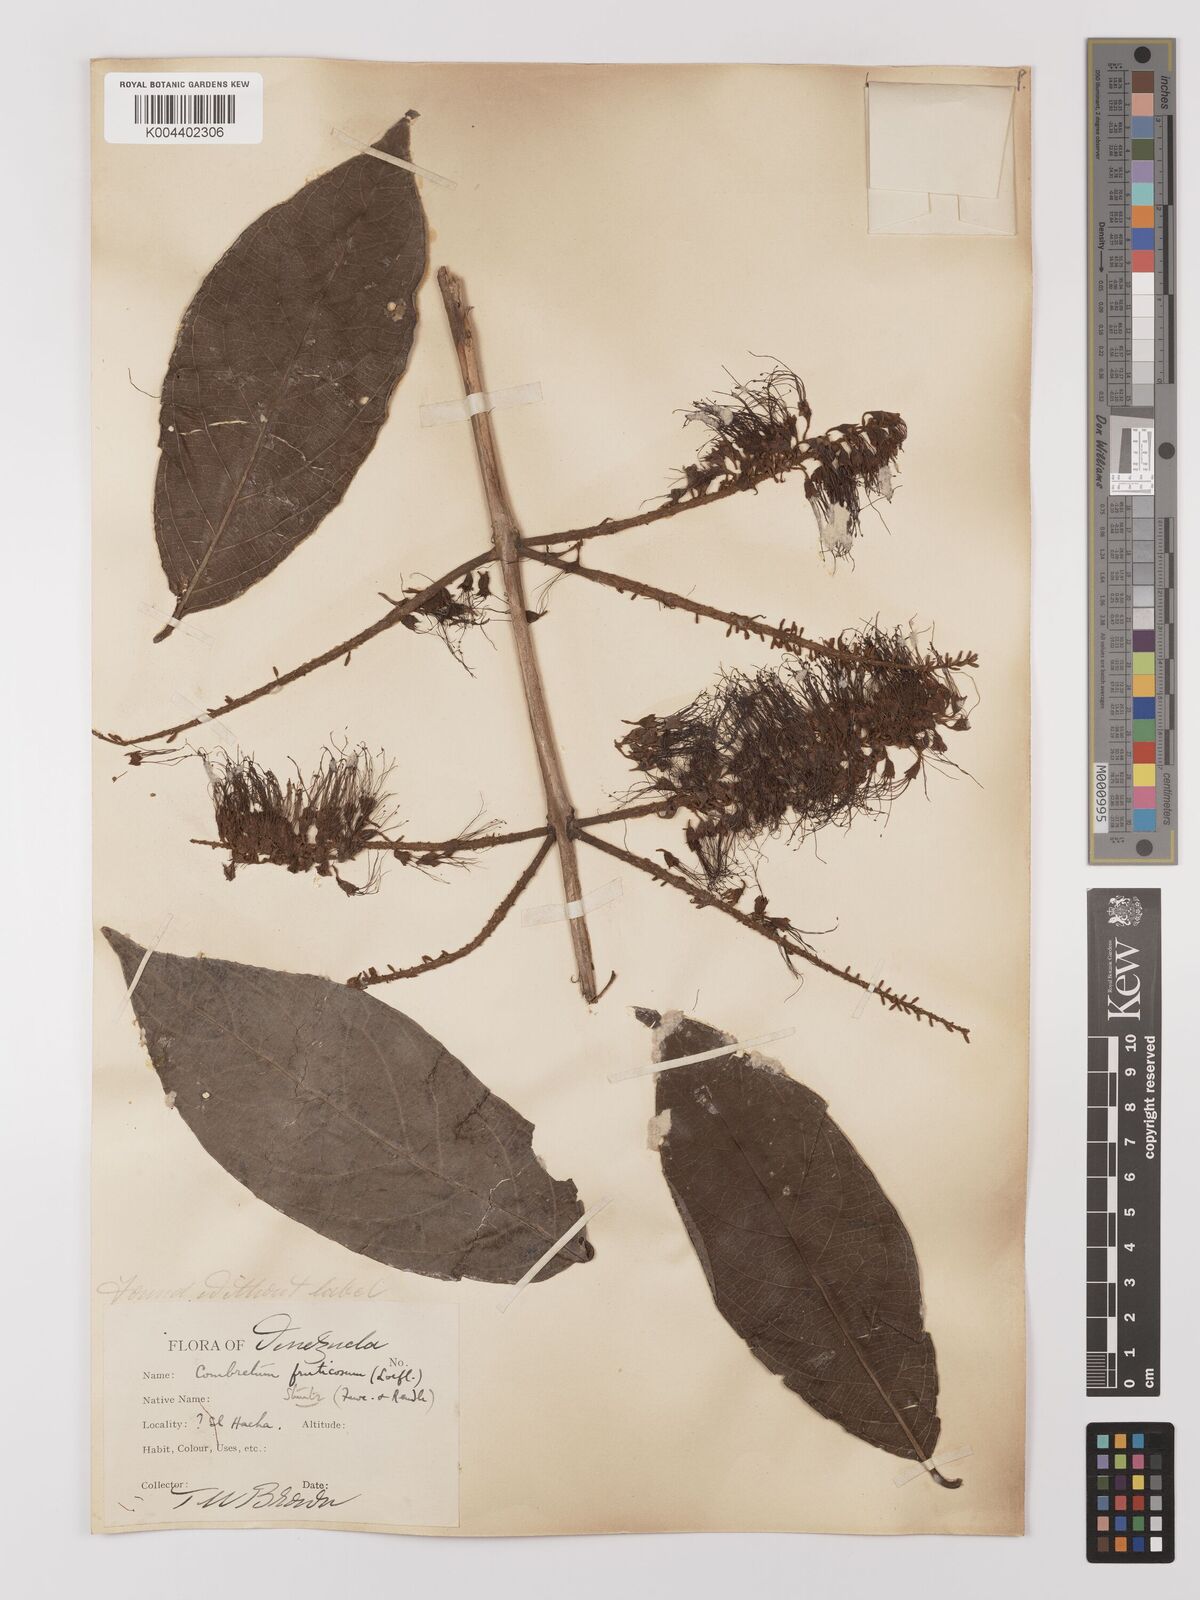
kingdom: Plantae
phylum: Tracheophyta
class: Magnoliopsida
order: Myrtales
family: Combretaceae
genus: Combretum
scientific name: Combretum fruticosum
